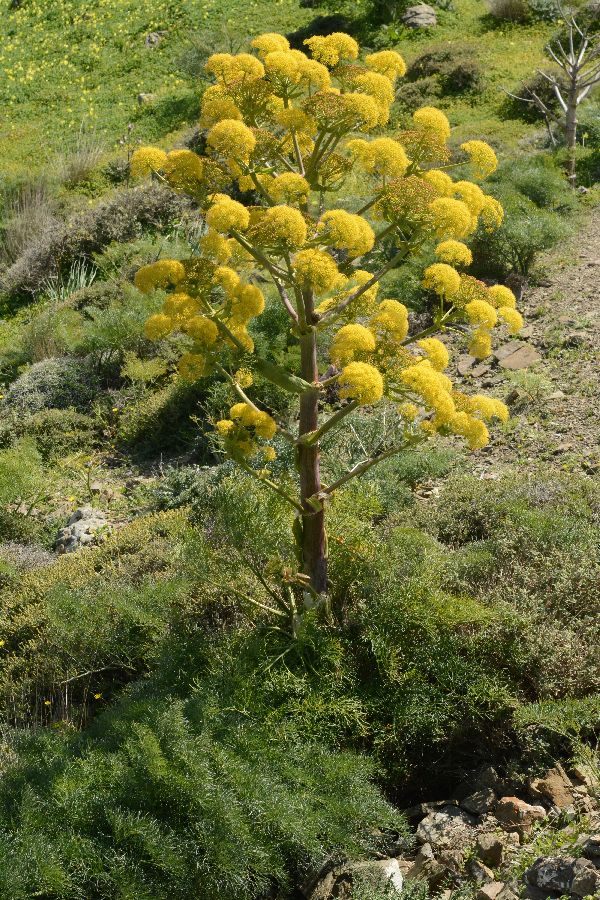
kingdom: Plantae
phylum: Tracheophyta
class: Magnoliopsida
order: Apiales
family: Apiaceae
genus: Ferula
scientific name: Ferula communis
